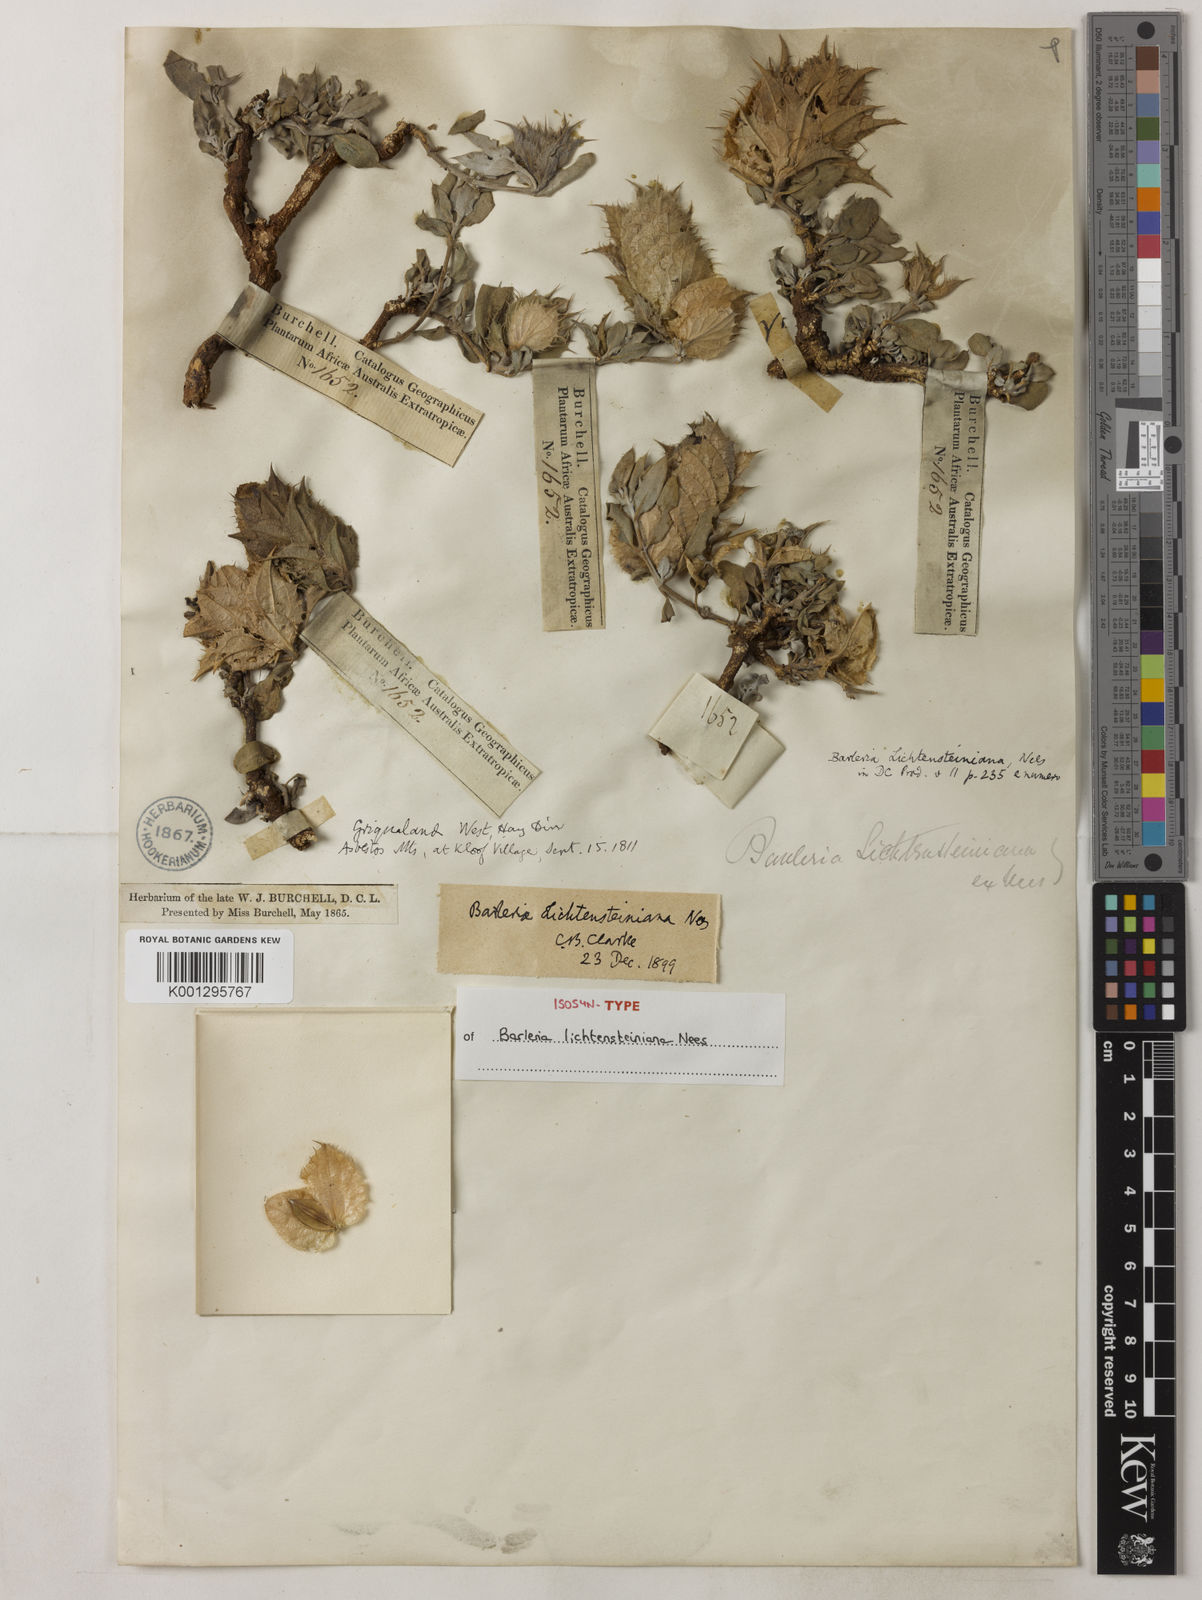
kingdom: Plantae
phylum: Tracheophyta
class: Magnoliopsida
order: Lamiales
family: Acanthaceae
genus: Barleria
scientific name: Barleria lichtensteiniana
